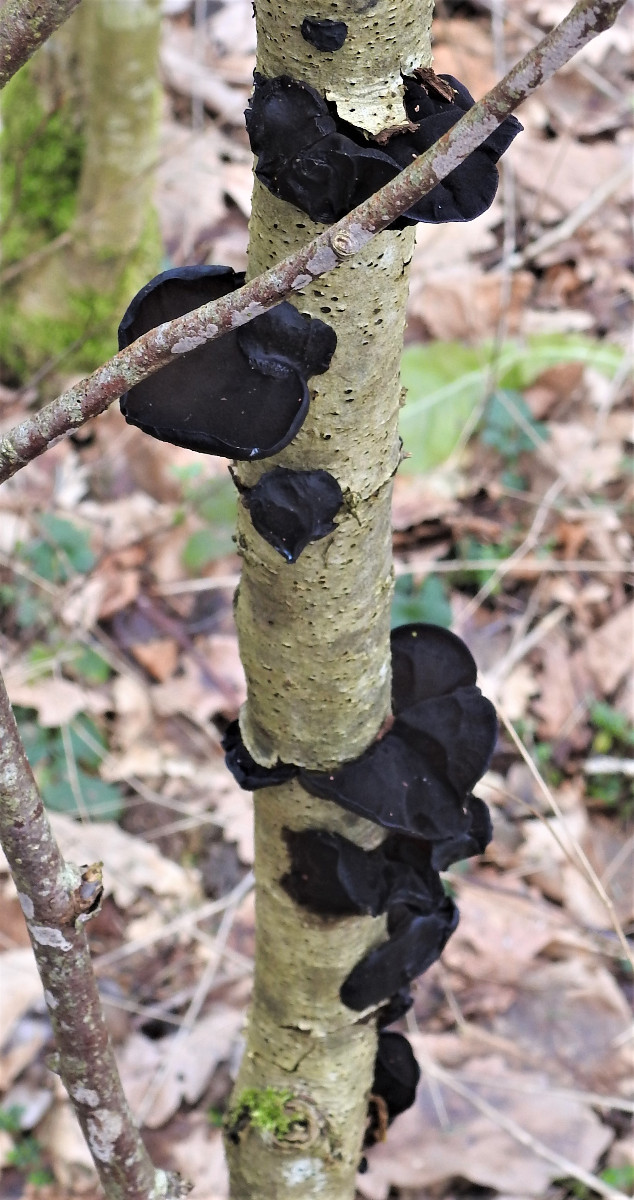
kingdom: Fungi
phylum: Basidiomycota
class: Agaricomycetes
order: Auriculariales
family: Auriculariaceae
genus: Exidia
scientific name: Exidia glandulosa
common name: ege-bævretop
